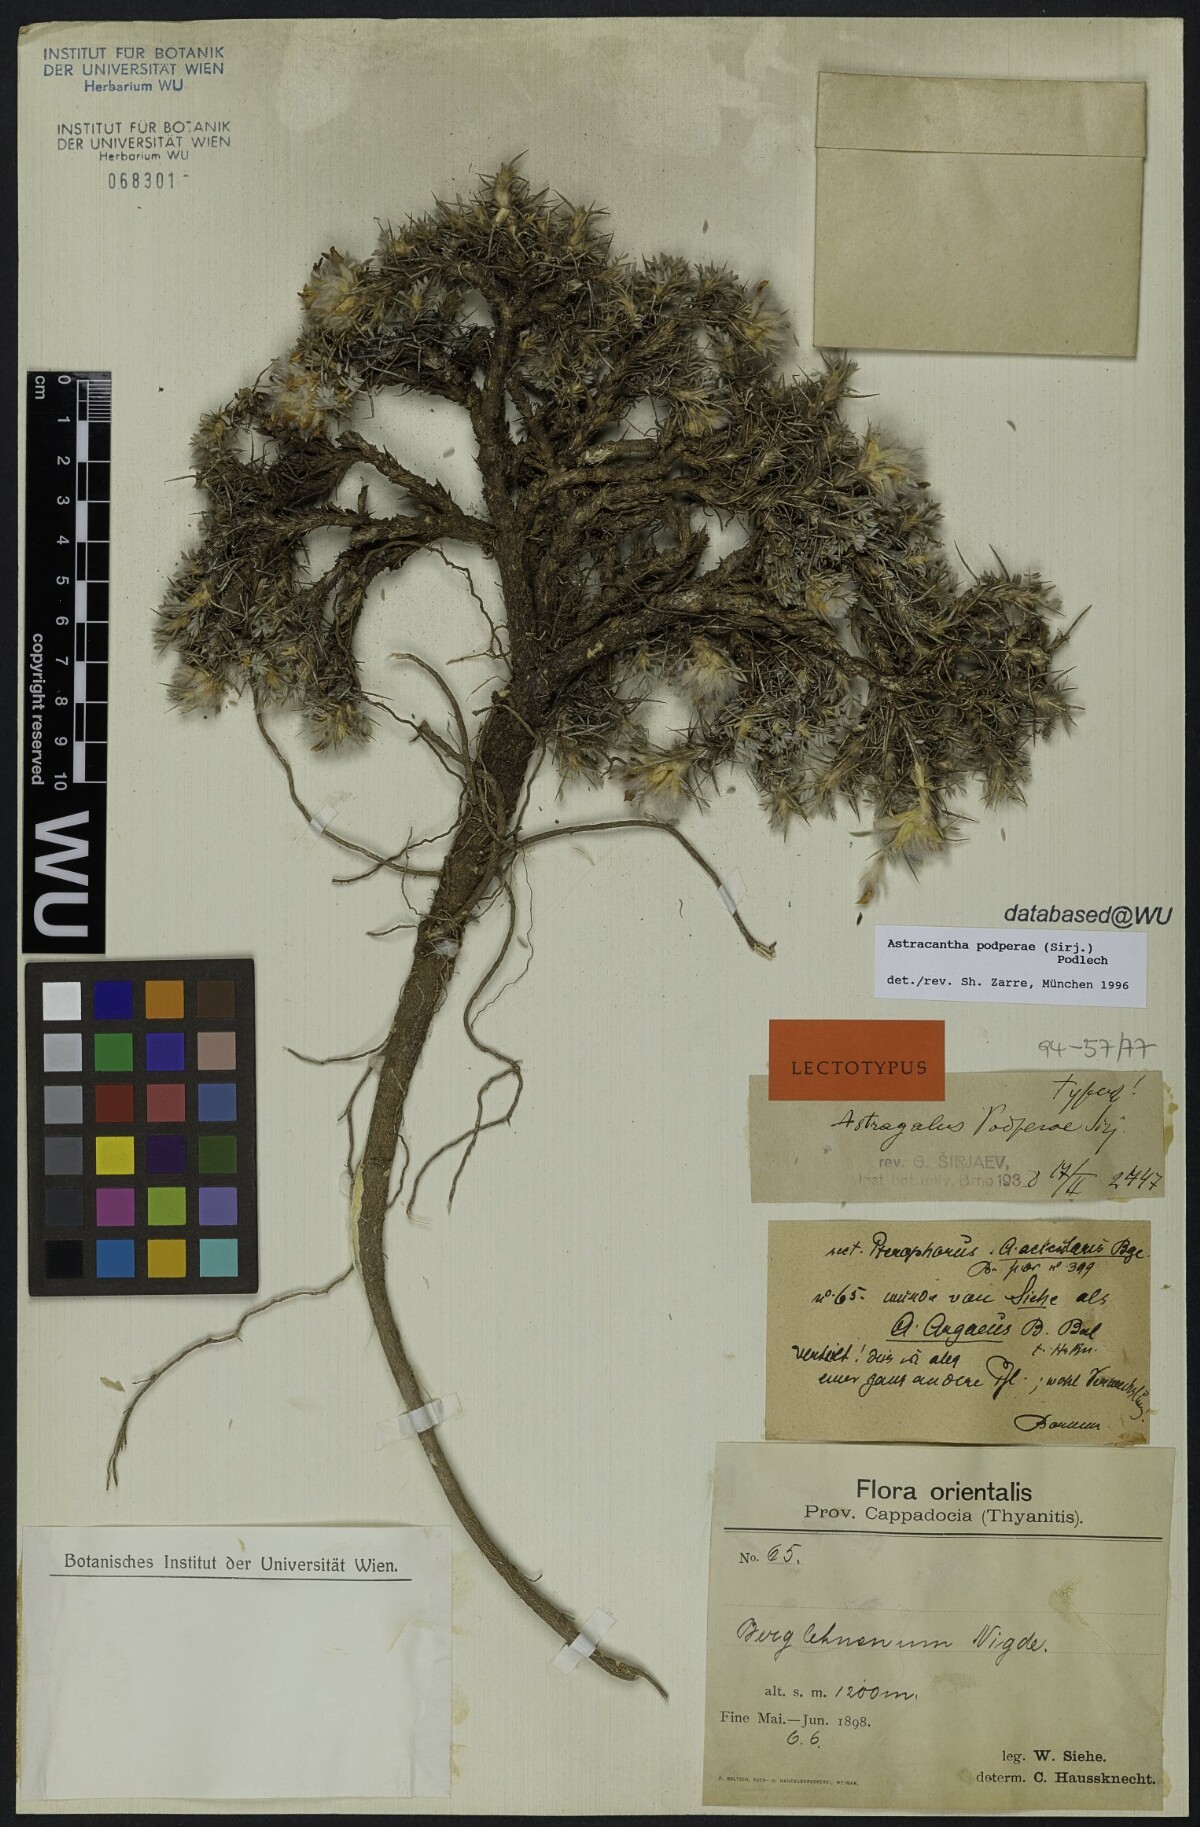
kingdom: Plantae
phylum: Tracheophyta
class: Magnoliopsida
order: Fabales
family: Fabaceae
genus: Astragalus
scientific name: Astragalus condensatus
